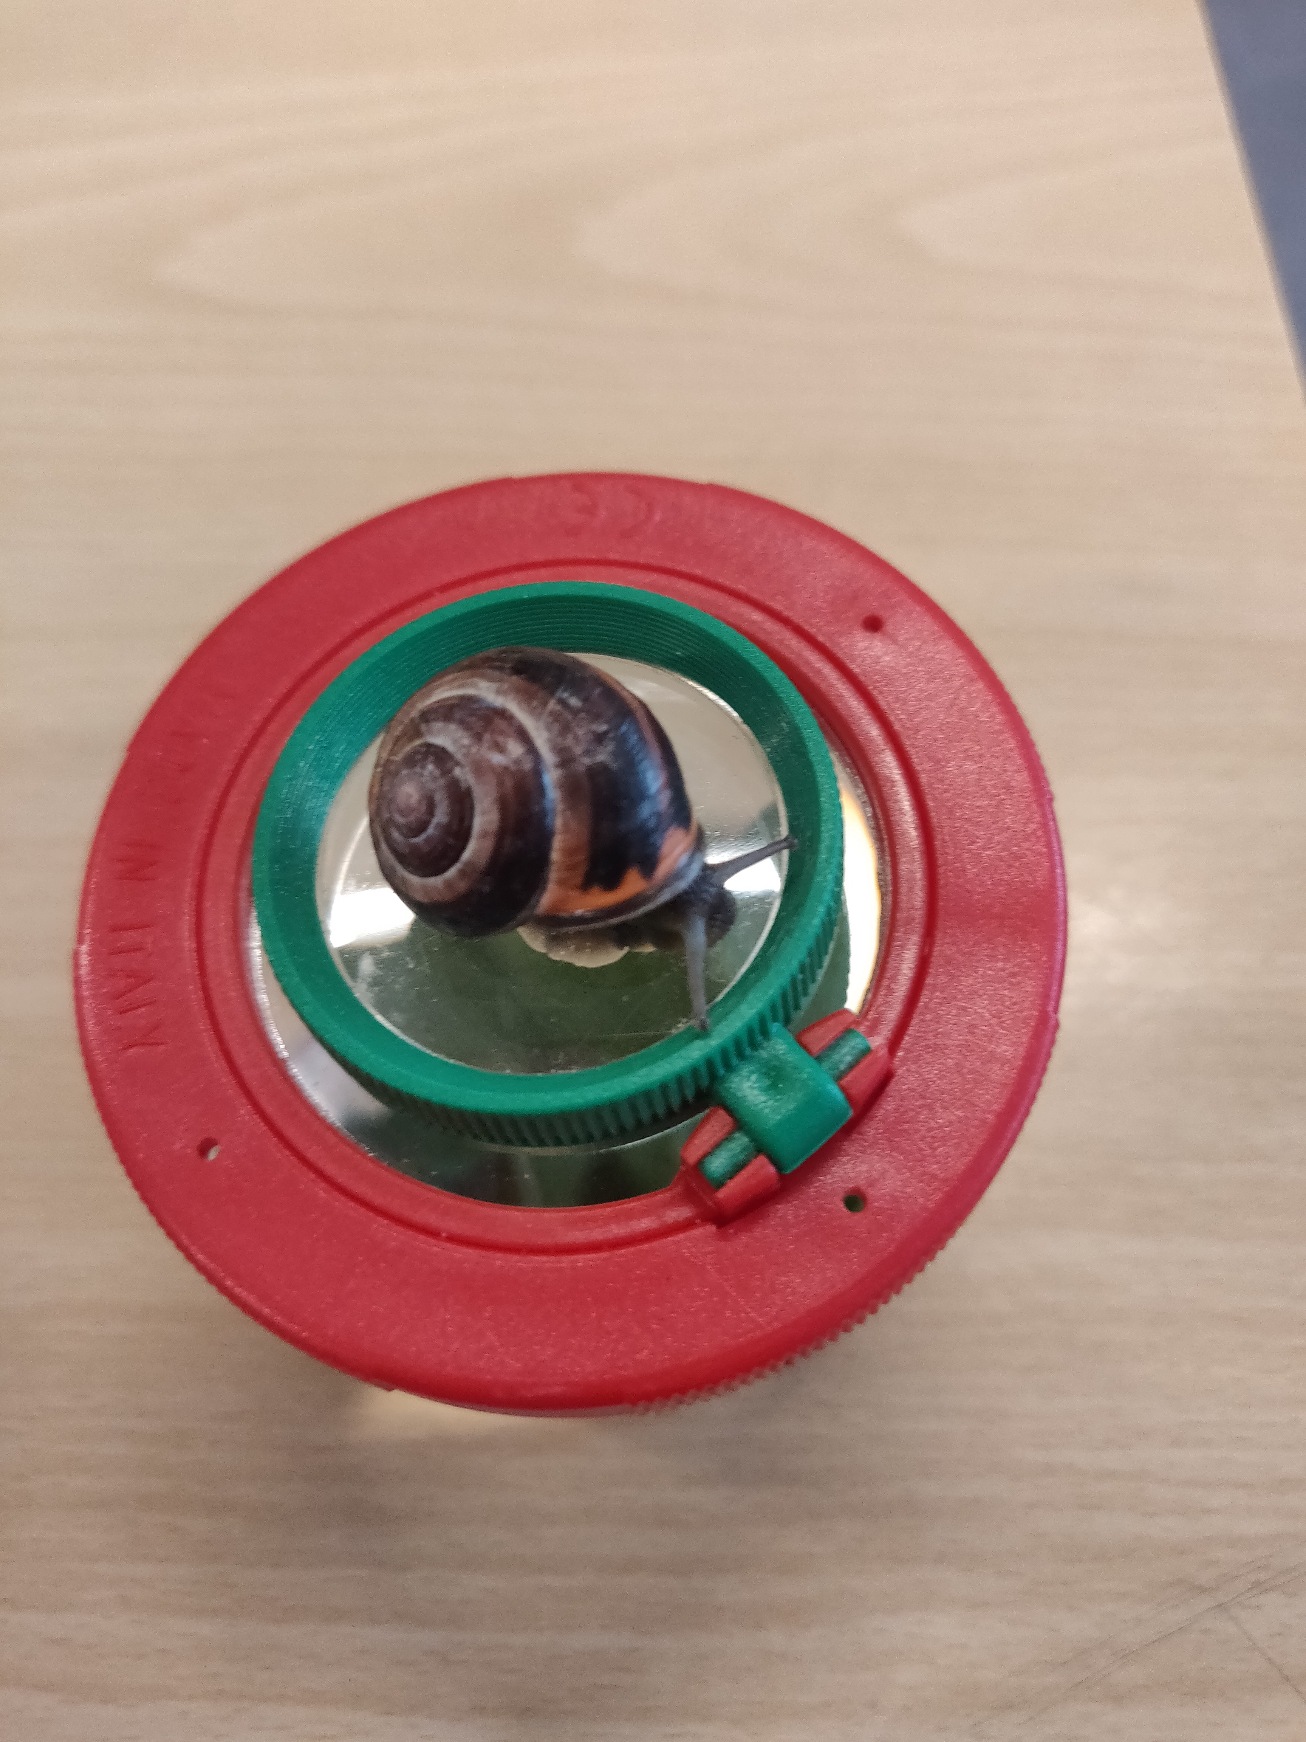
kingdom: Animalia
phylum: Mollusca
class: Gastropoda
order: Stylommatophora
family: Helicidae
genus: Cepaea
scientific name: Cepaea nemoralis
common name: Lundsnegl
